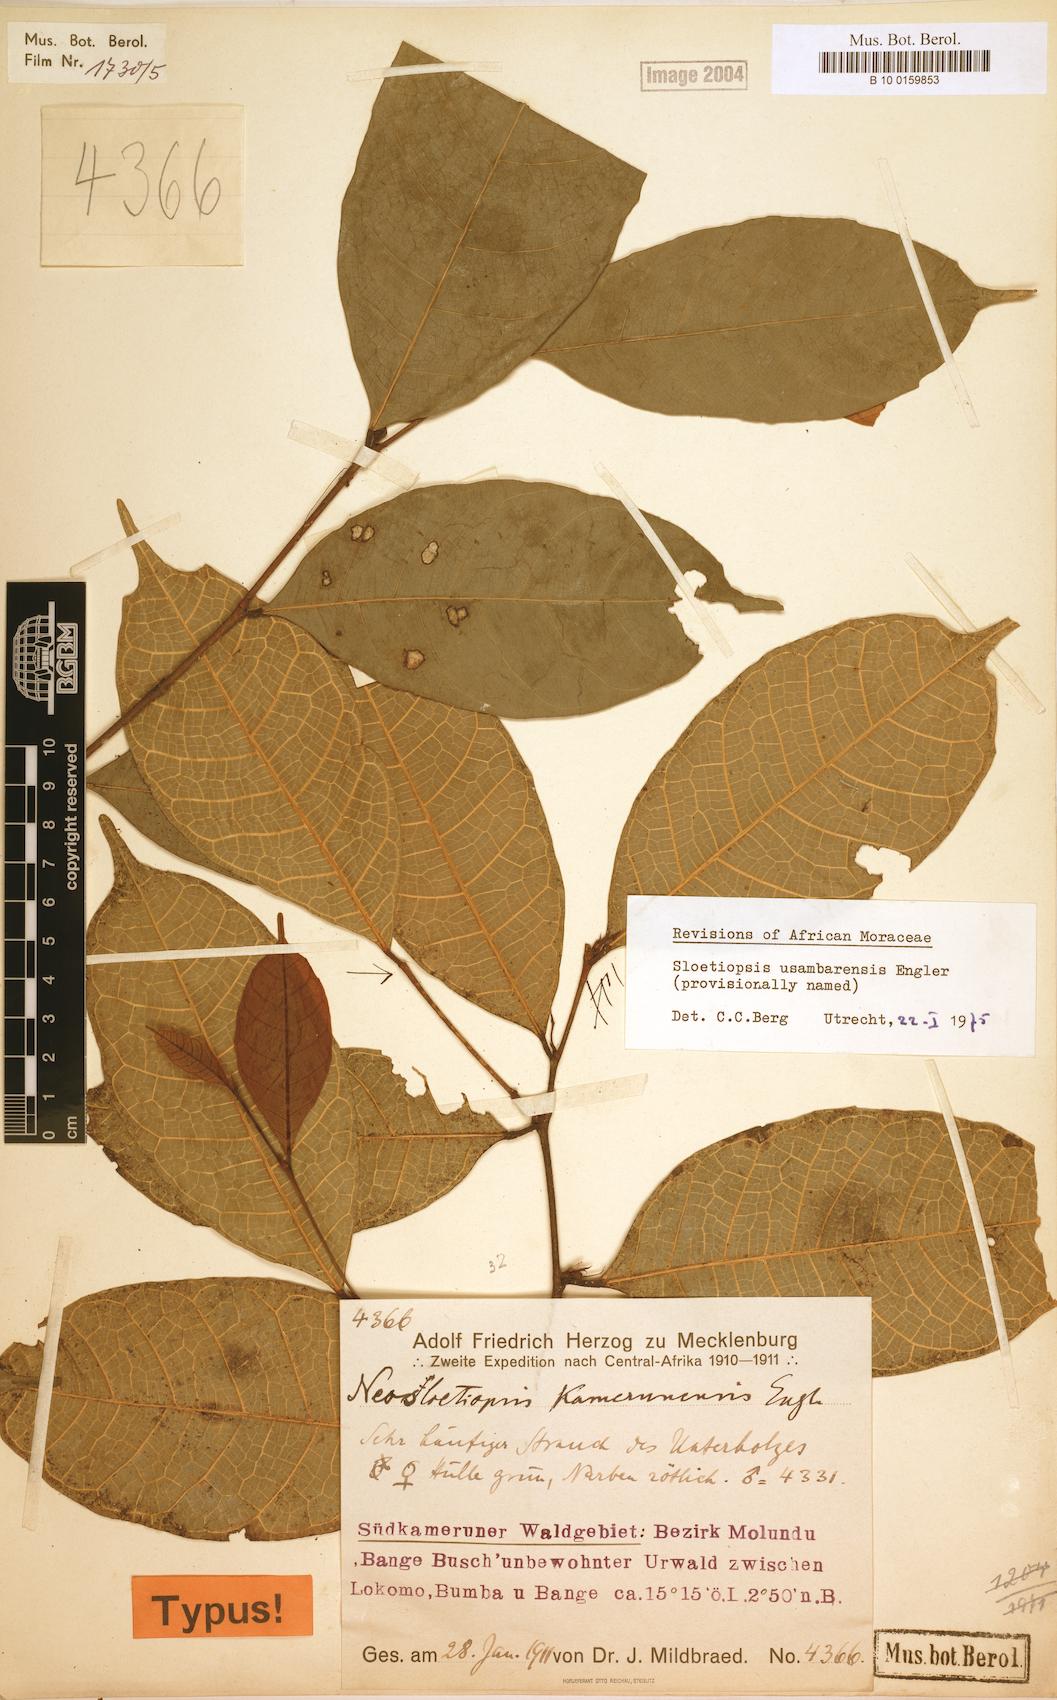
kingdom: Plantae
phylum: Tracheophyta
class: Magnoliopsida
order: Rosales
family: Moraceae
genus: Sloetiopsis
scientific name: Sloetiopsis usambarensis
